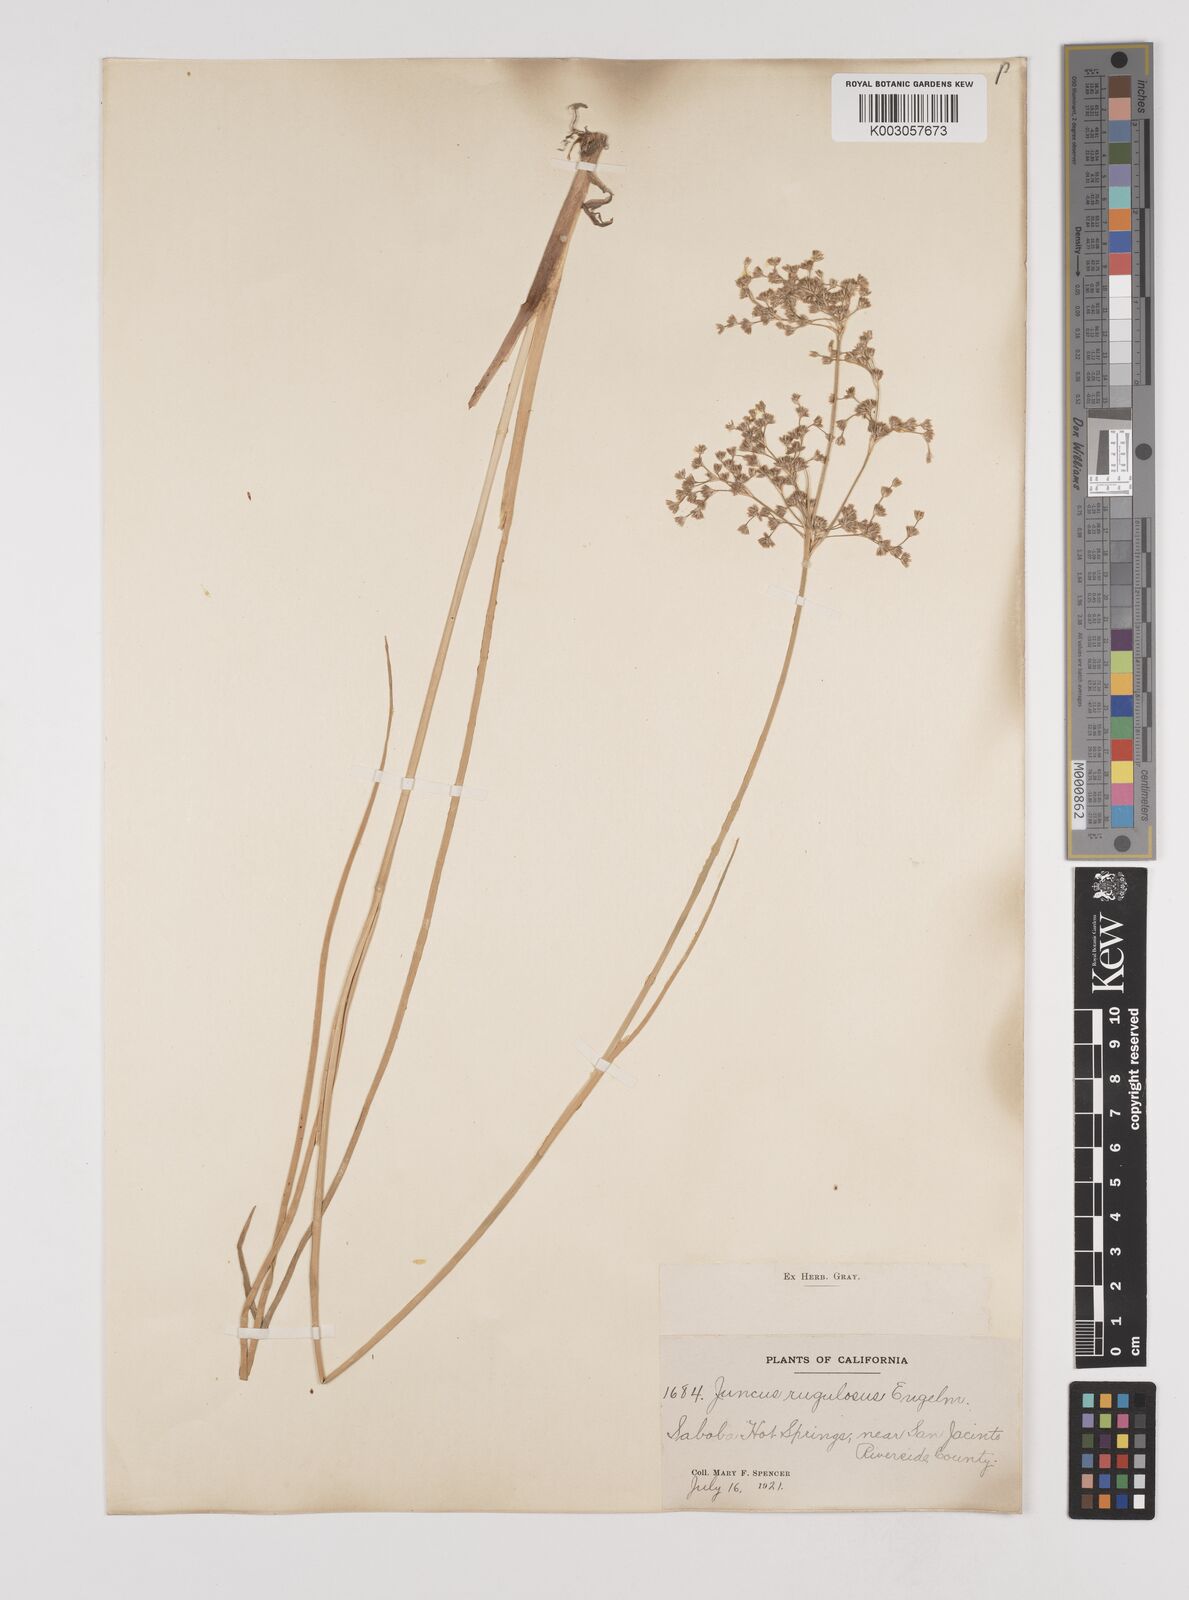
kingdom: Plantae
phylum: Tracheophyta
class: Liliopsida
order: Poales
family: Juncaceae
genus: Juncus
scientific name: Juncus rugulosus
